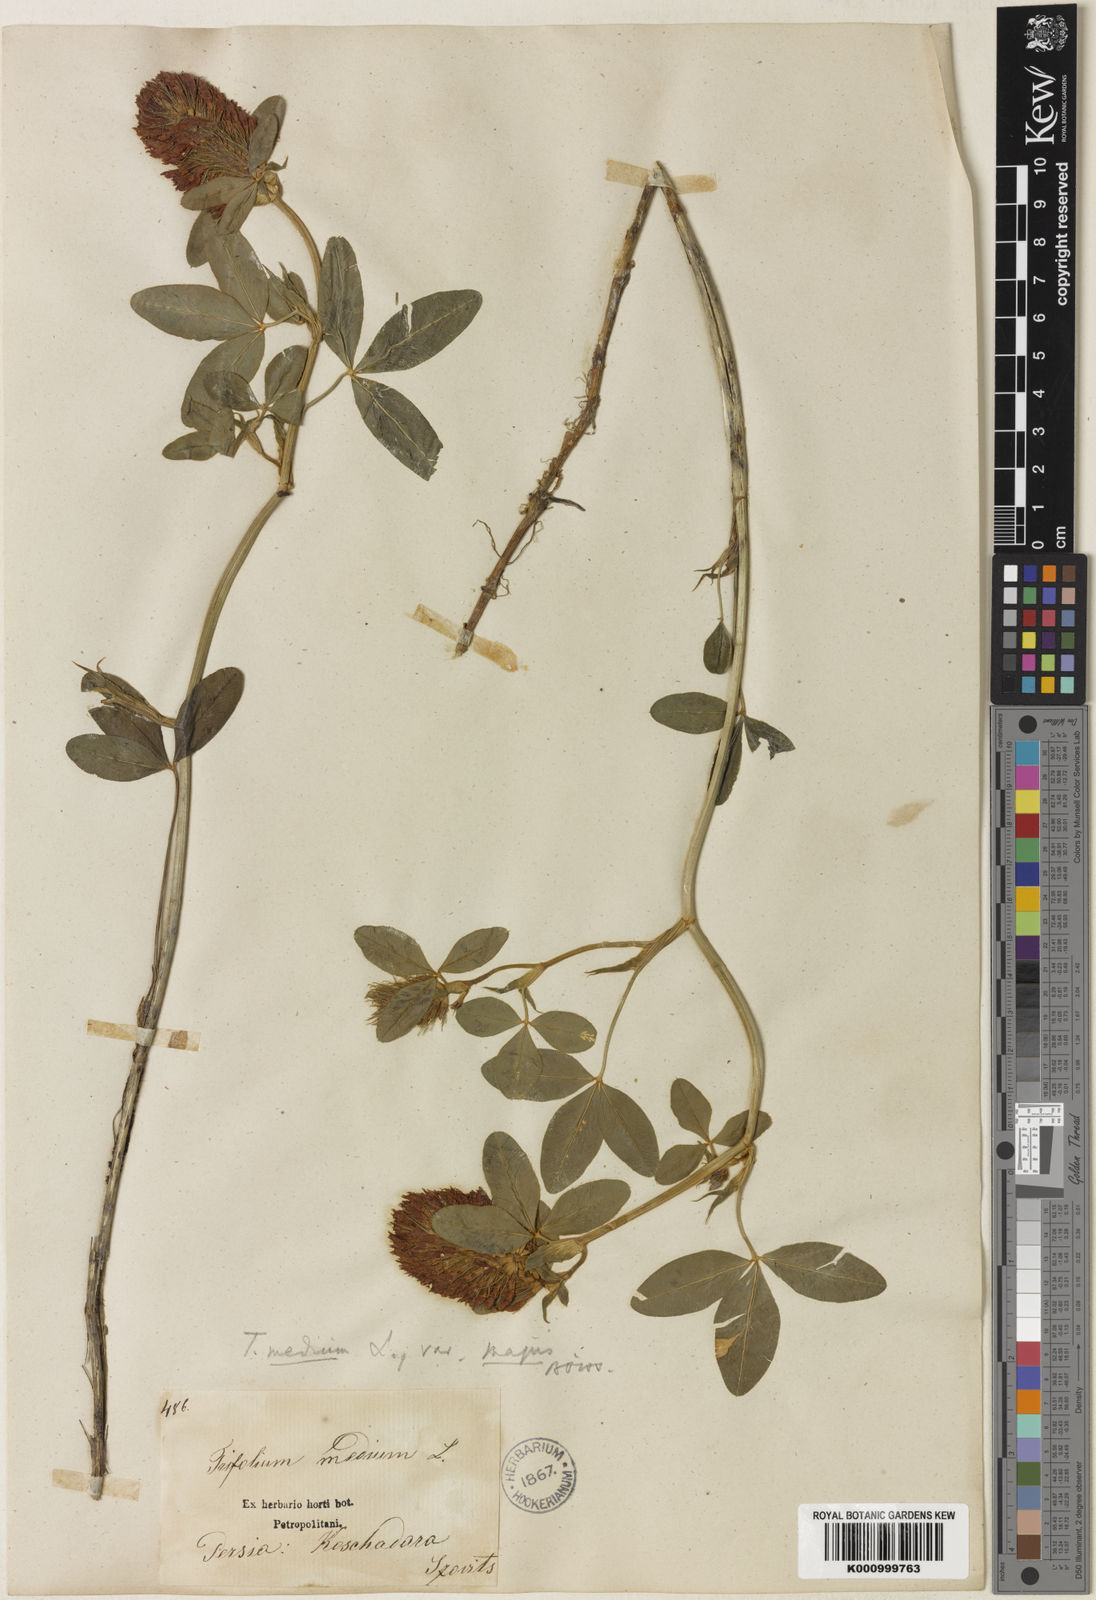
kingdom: Plantae
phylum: Tracheophyta
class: Magnoliopsida
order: Fabales
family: Fabaceae
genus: Trifolium
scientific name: Trifolium medium
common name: Zigzag clover
